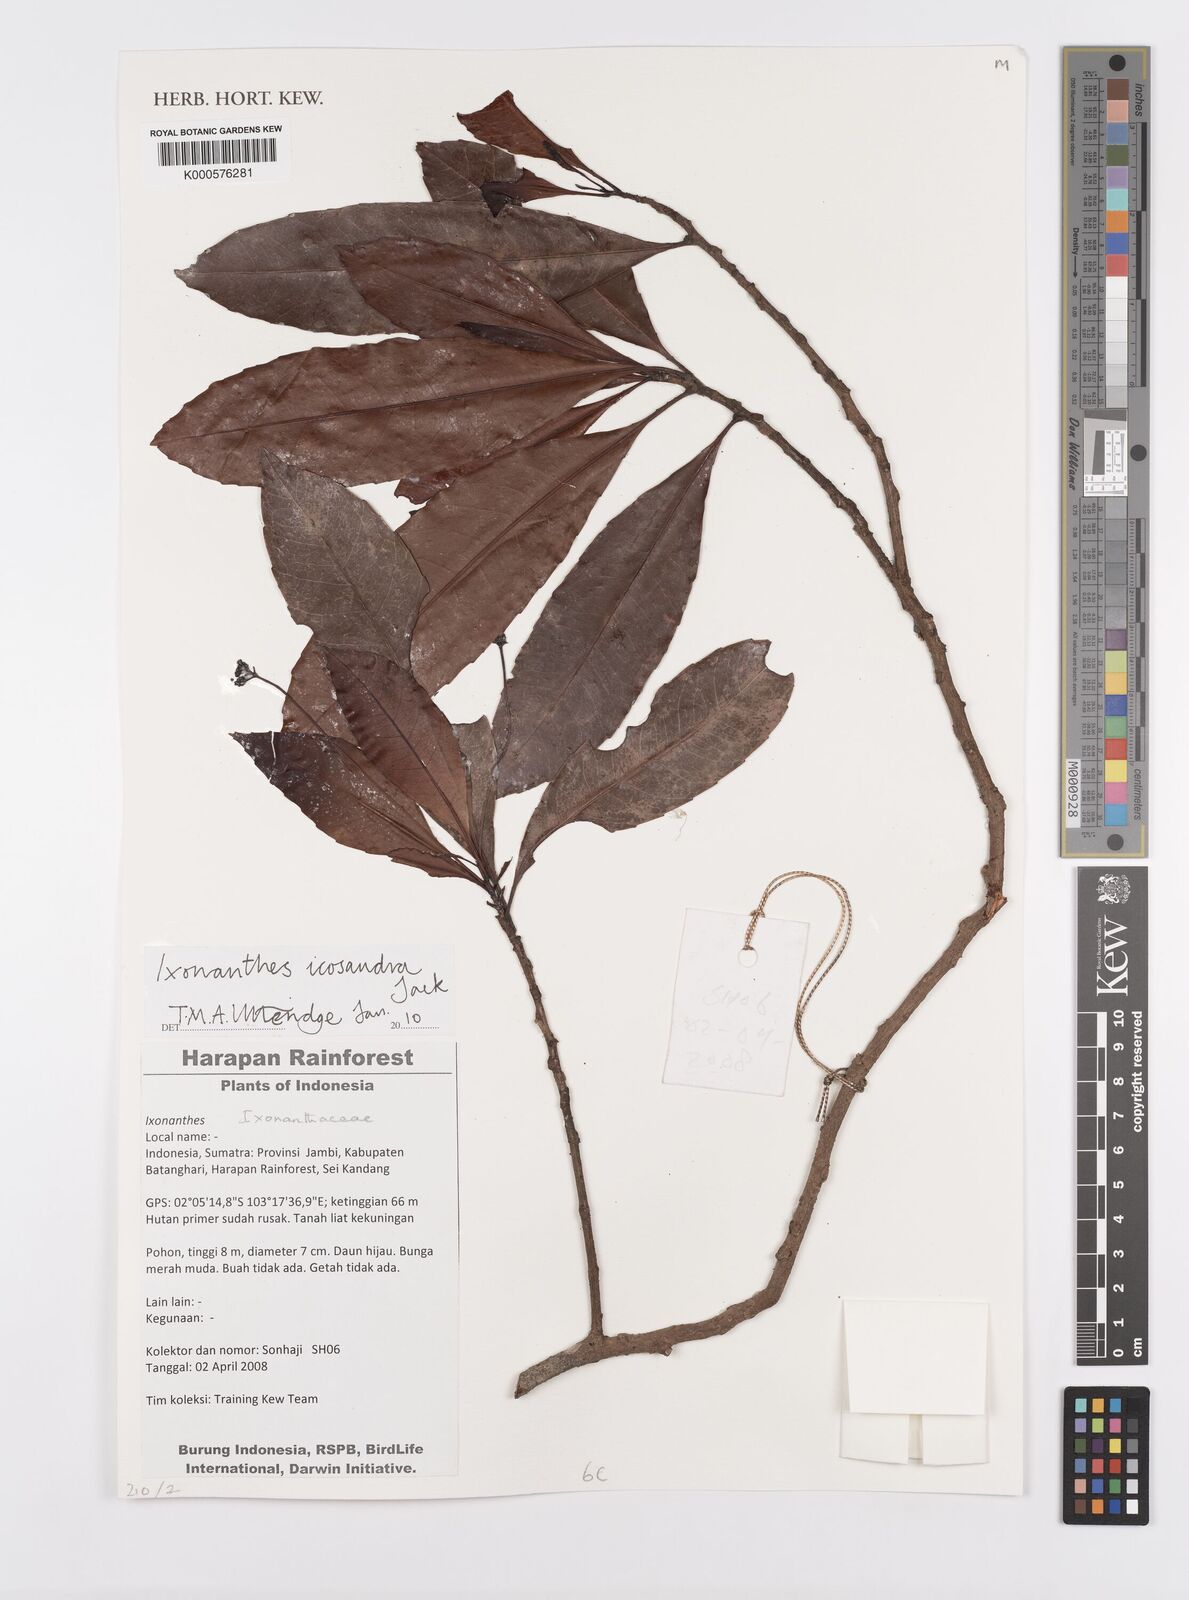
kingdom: Plantae
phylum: Tracheophyta
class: Magnoliopsida
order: Malpighiales
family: Ixonanthaceae
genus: Ixonanthes
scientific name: Ixonanthes icosandra
